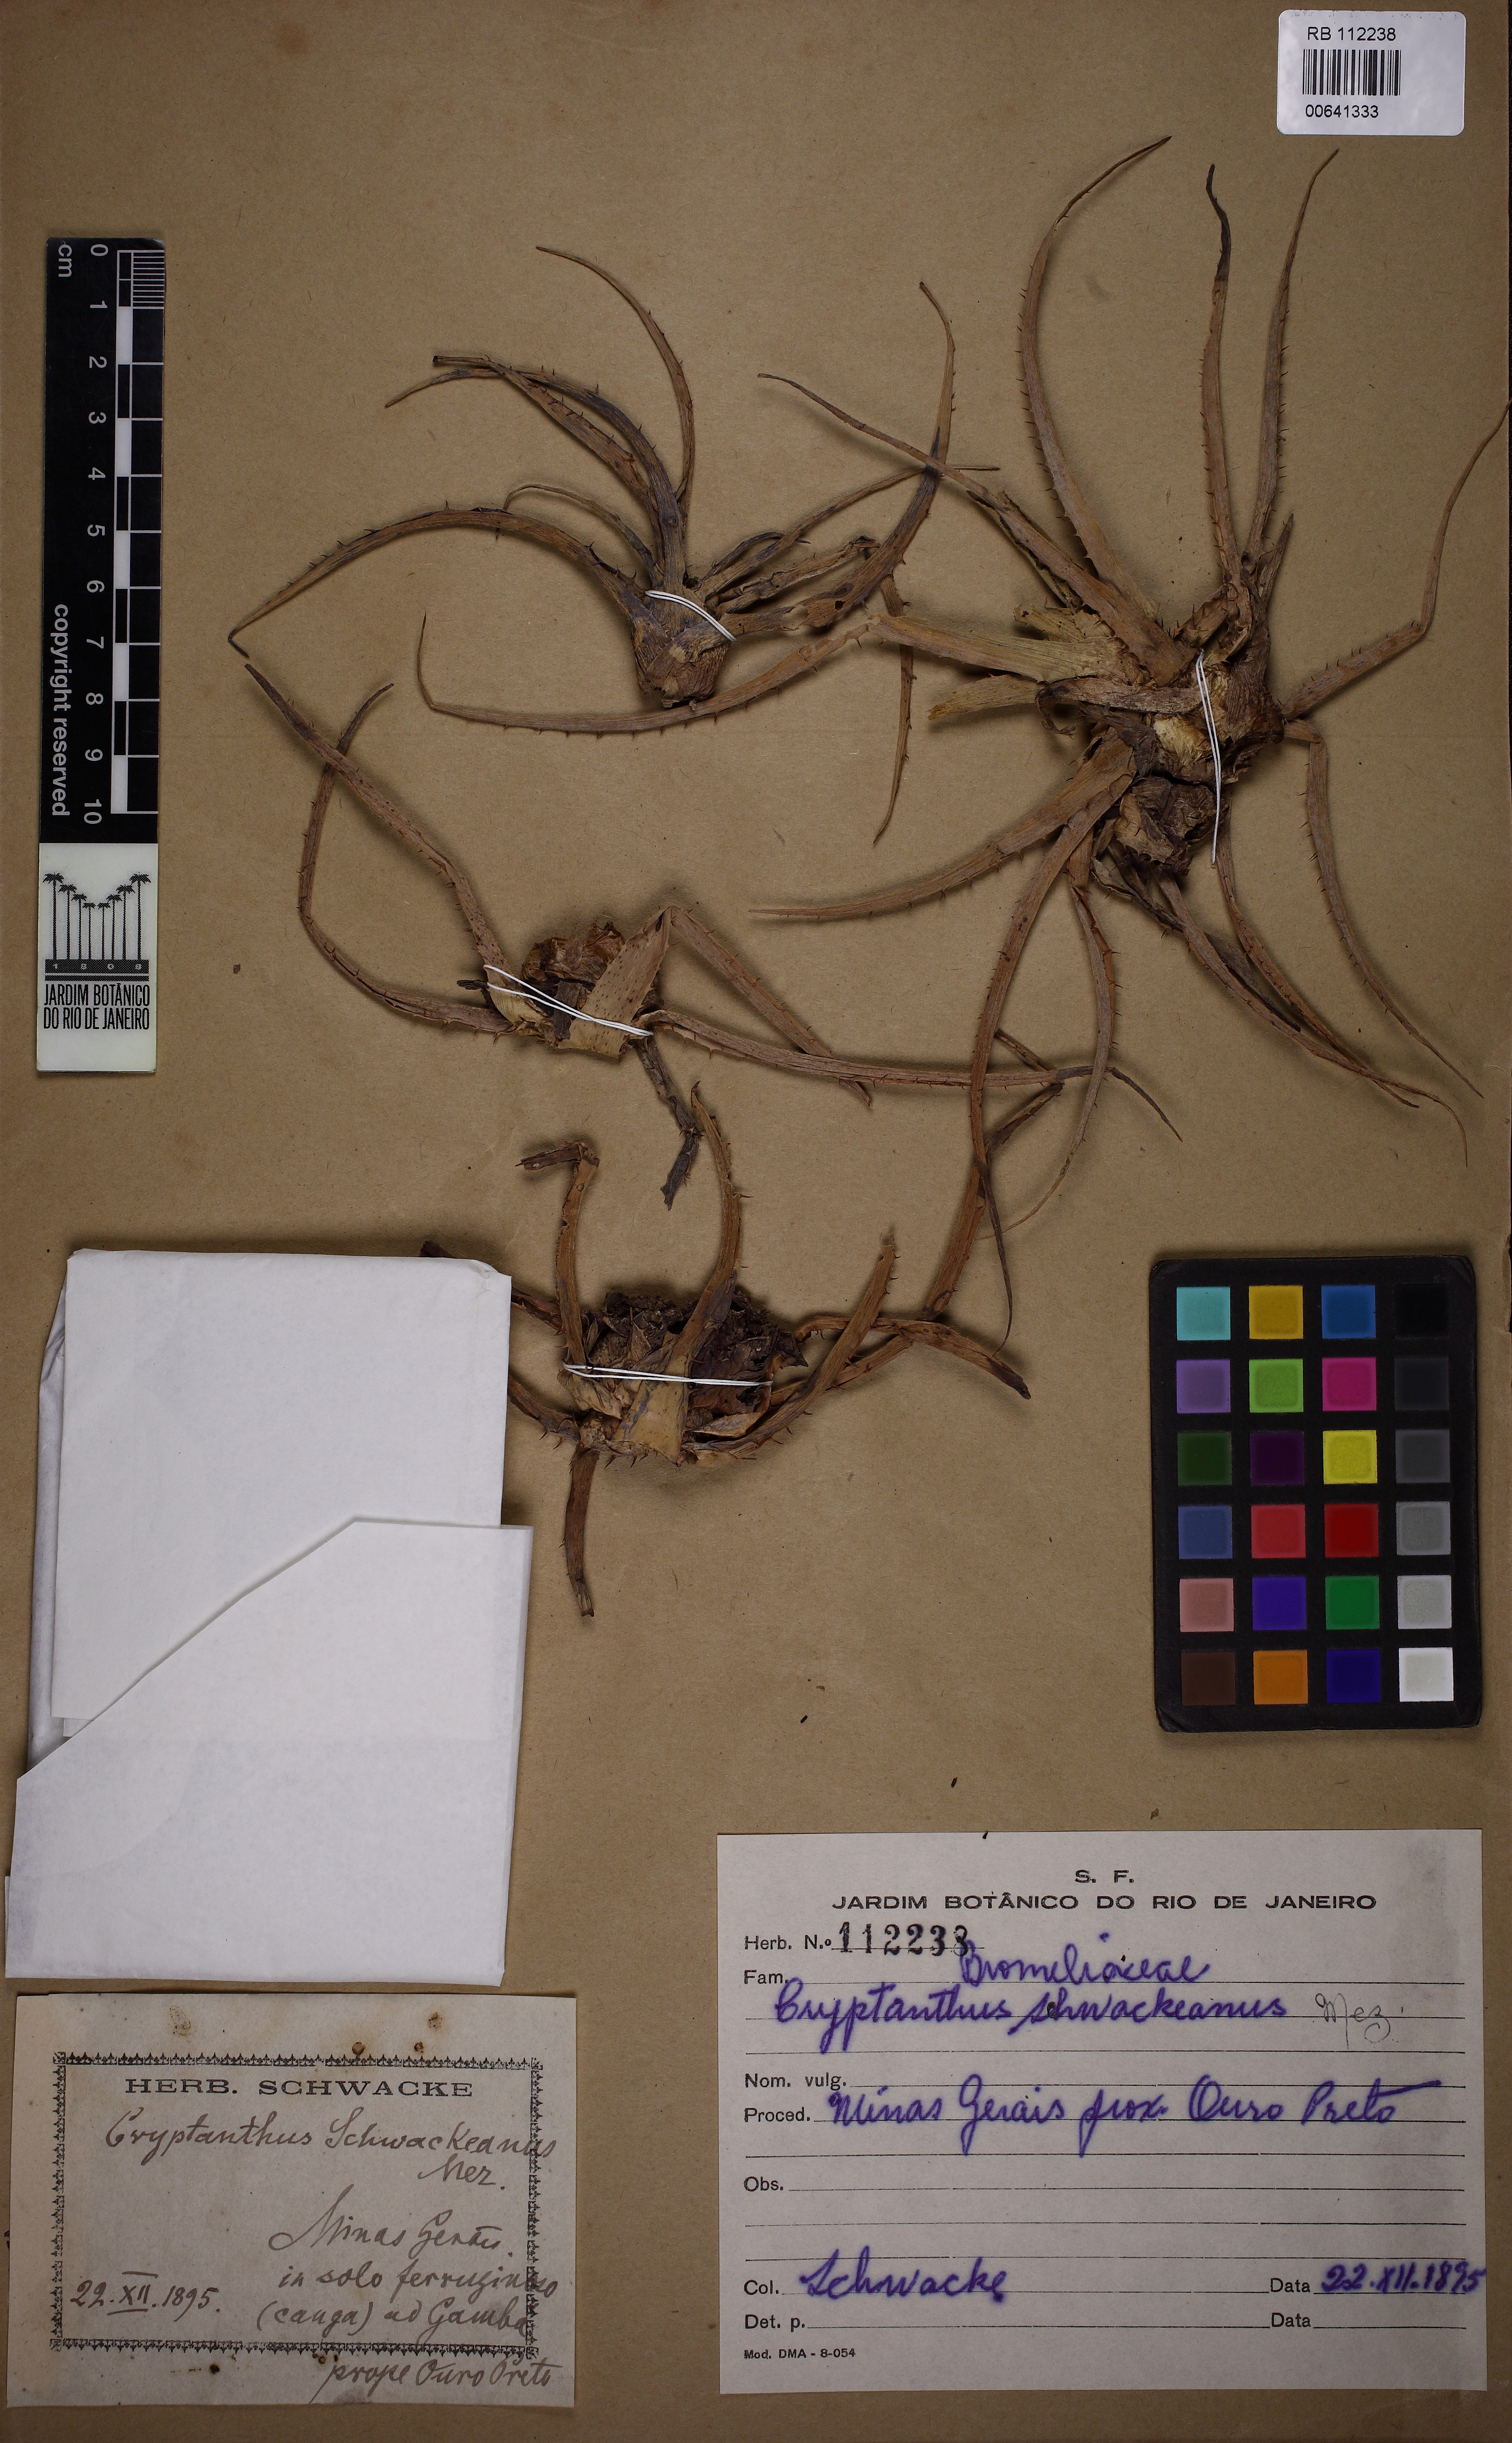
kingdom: Plantae
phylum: Tracheophyta
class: Liliopsida
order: Poales
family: Bromeliaceae
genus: Hoplocryptanthus
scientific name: Hoplocryptanthus schwackeanus
